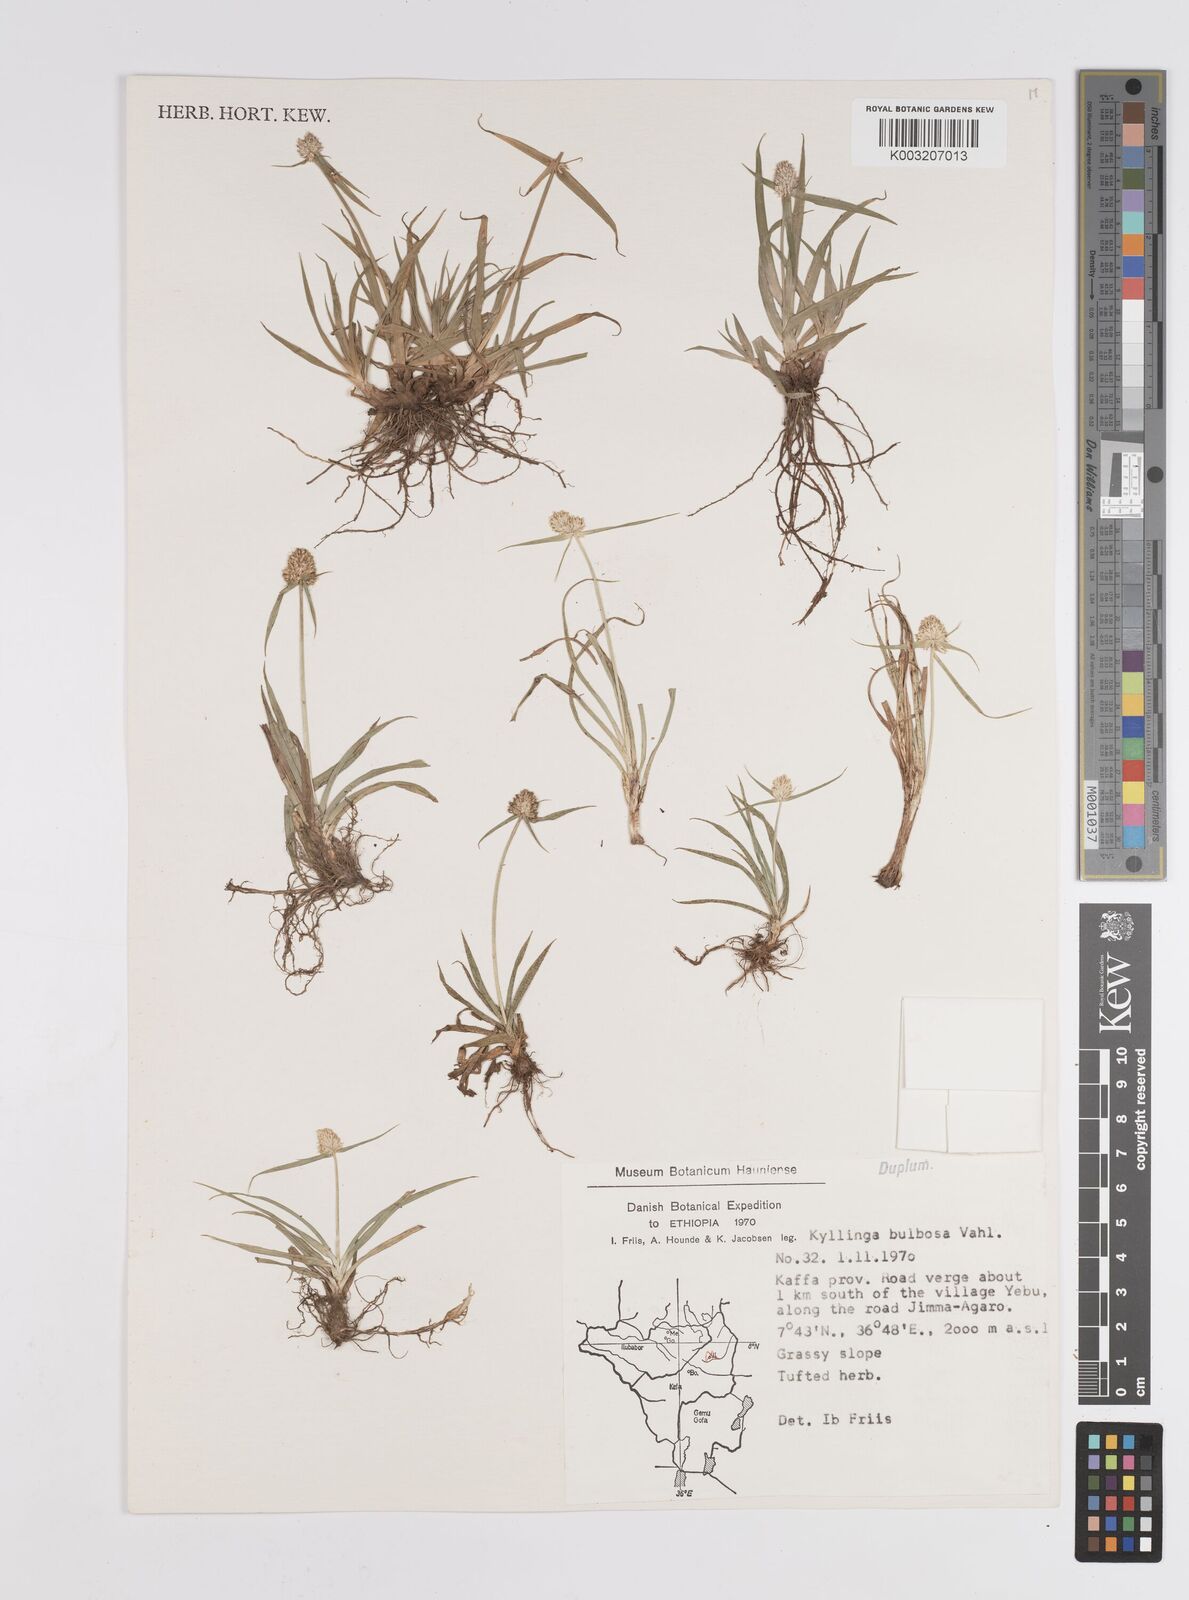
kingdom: Plantae
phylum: Tracheophyta
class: Liliopsida
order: Poales
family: Cyperaceae
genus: Cyperus
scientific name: Cyperus
